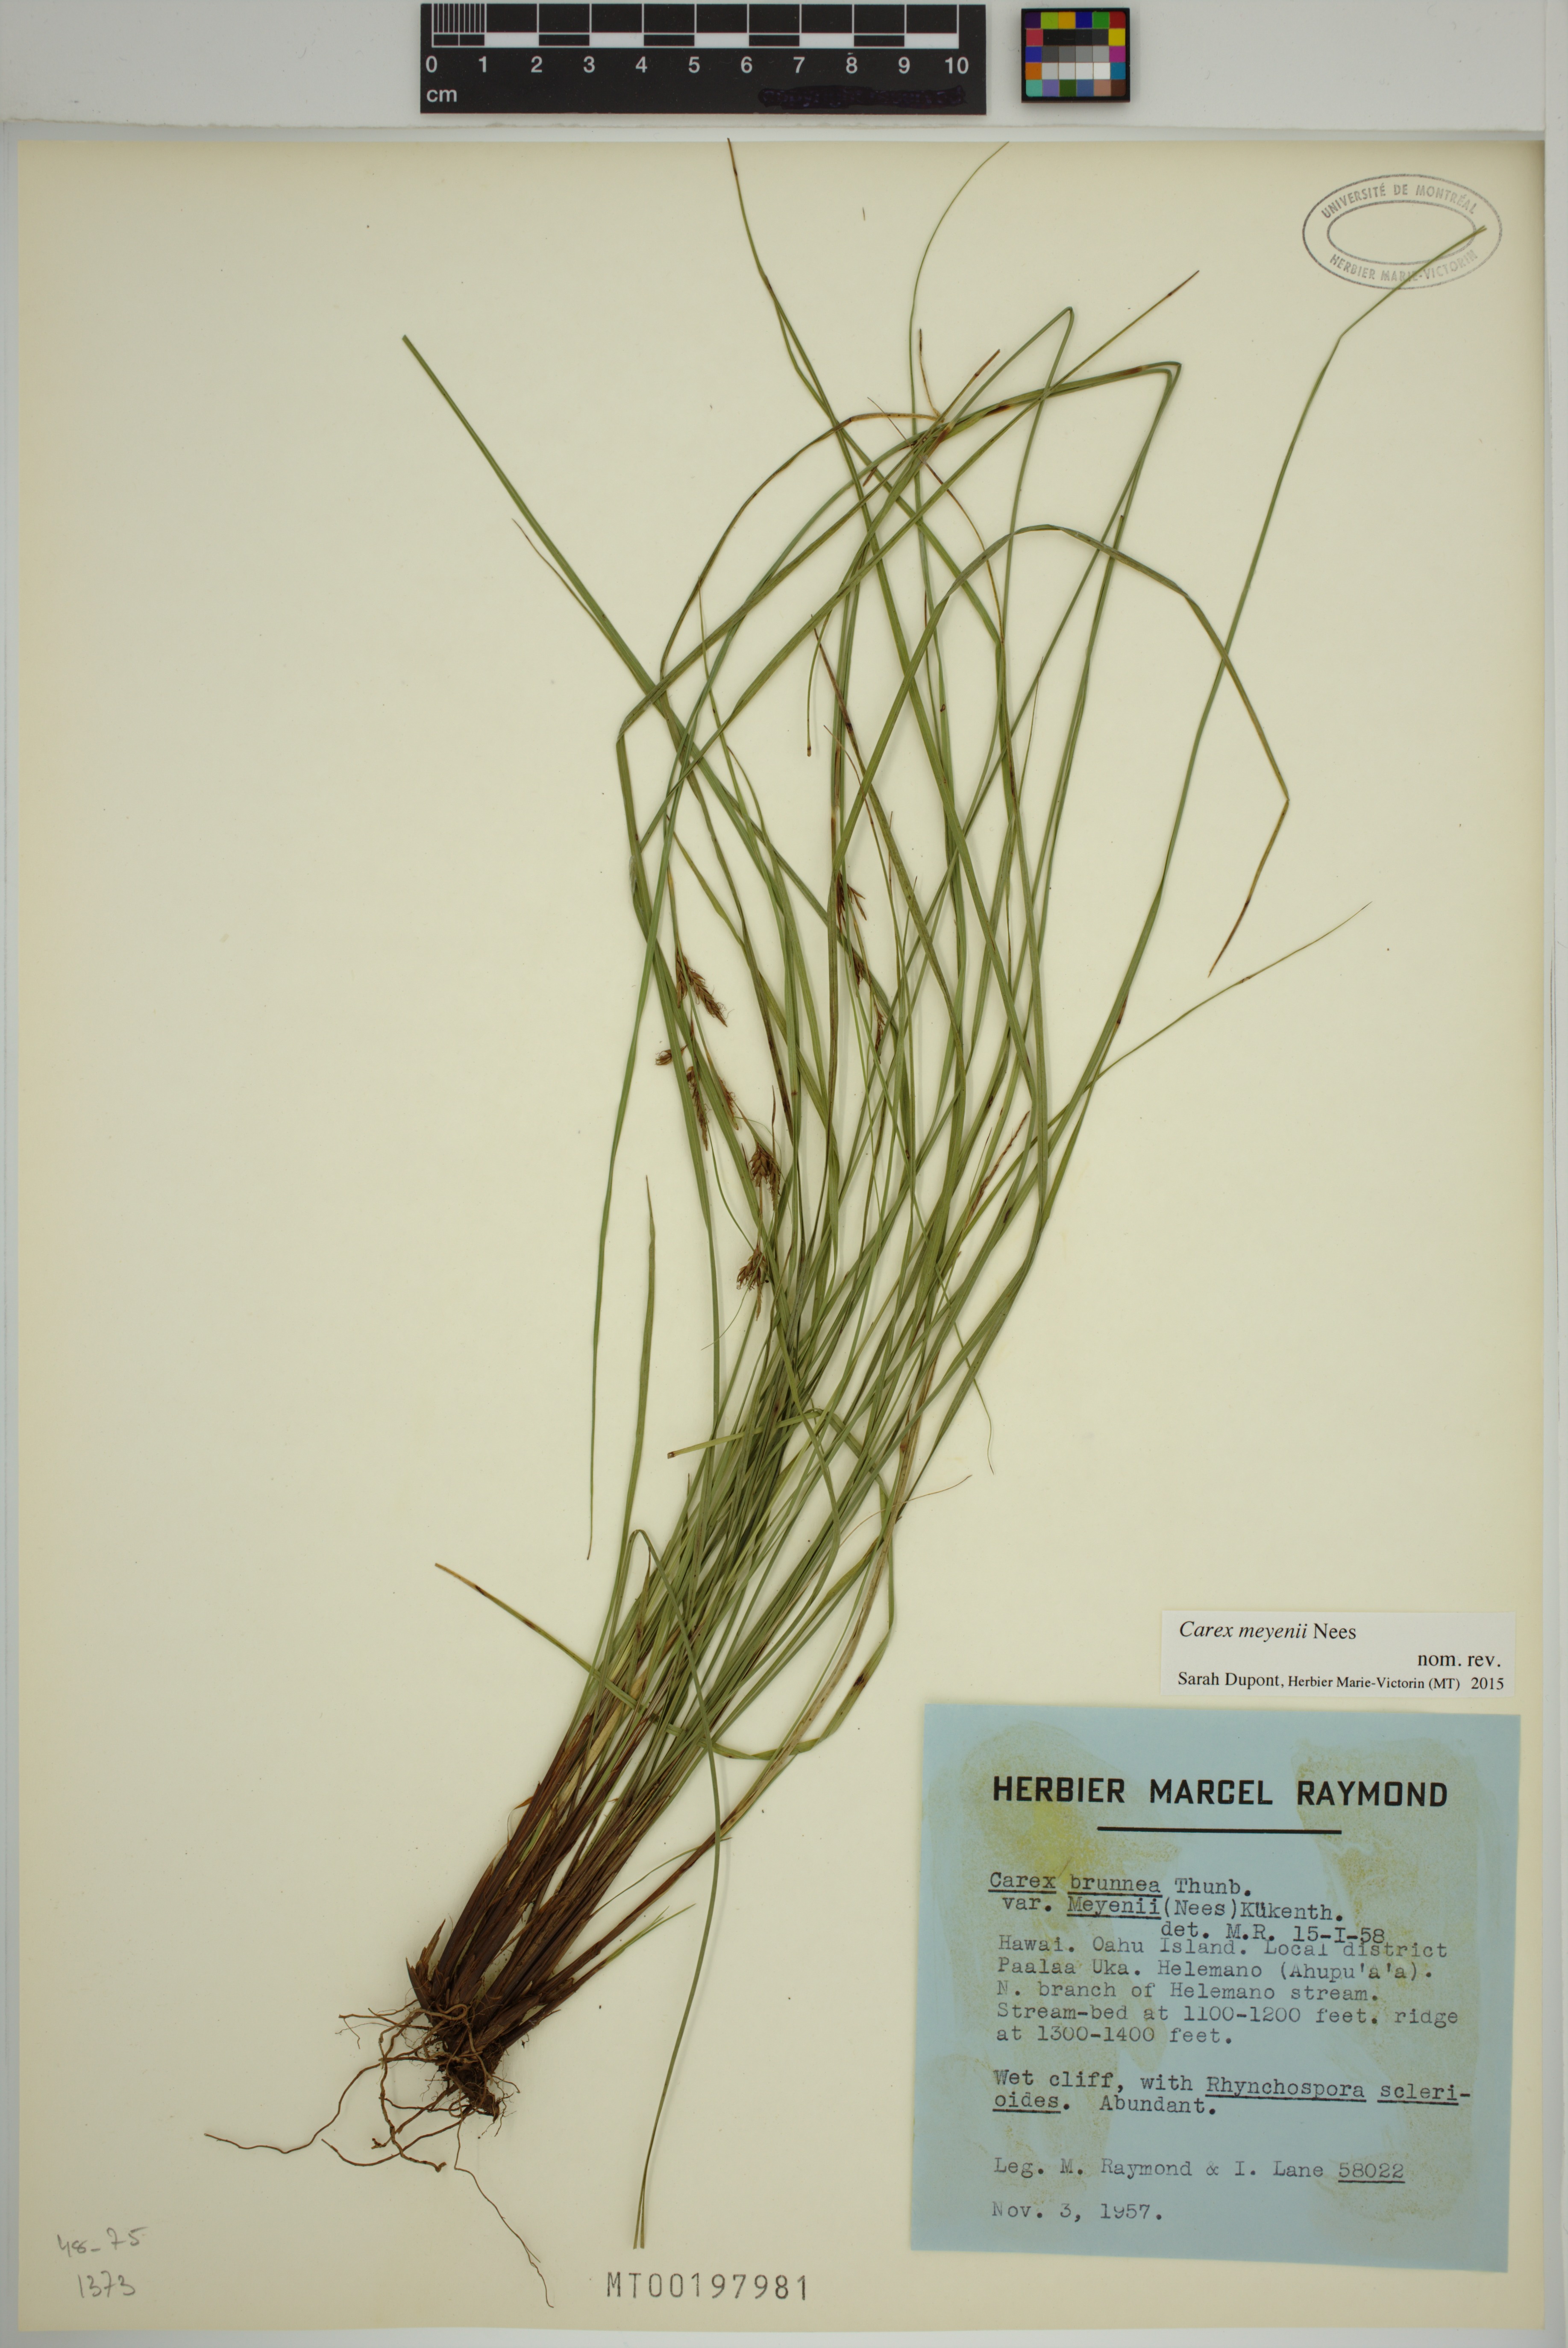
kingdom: Plantae
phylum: Tracheophyta
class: Liliopsida
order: Poales
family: Cyperaceae
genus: Carex
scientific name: Carex meyenii
